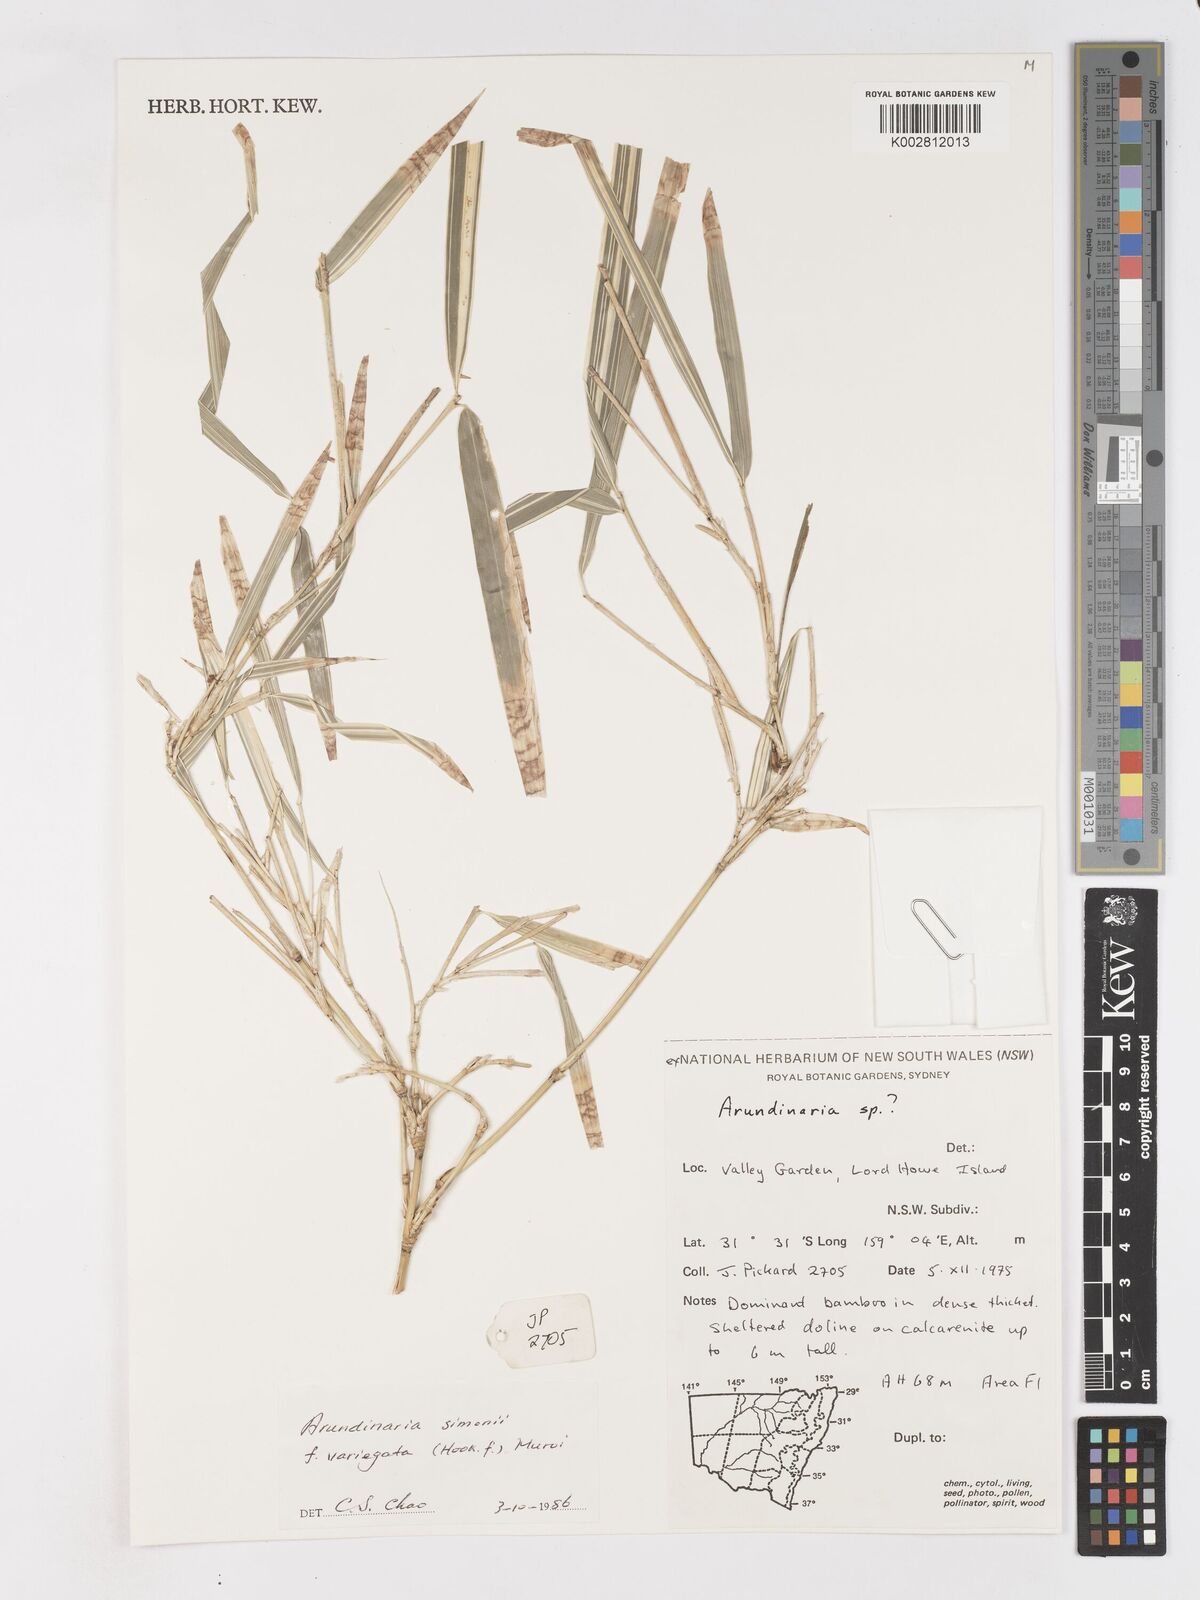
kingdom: Plantae
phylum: Tracheophyta
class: Liliopsida
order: Poales
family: Poaceae
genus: Pleioblastus
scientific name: Pleioblastus simonii
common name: Simon bamboo
